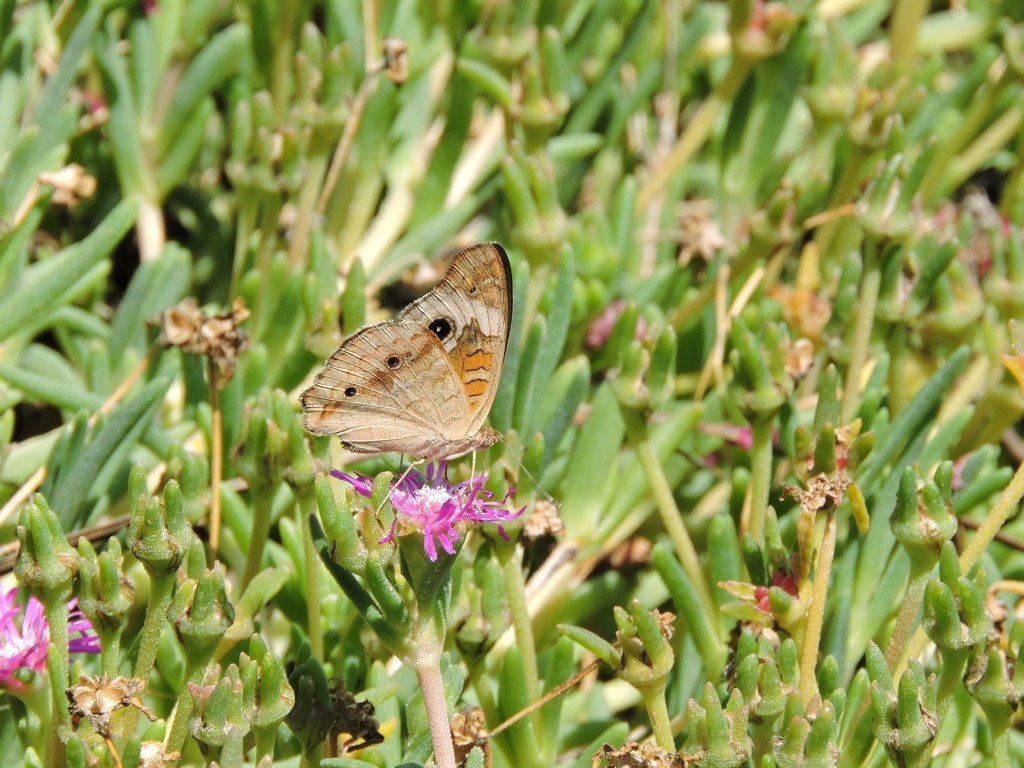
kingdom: Animalia
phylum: Arthropoda
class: Insecta
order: Lepidoptera
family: Nymphalidae
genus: Junonia
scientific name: Junonia coenia
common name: Common Buckeye
